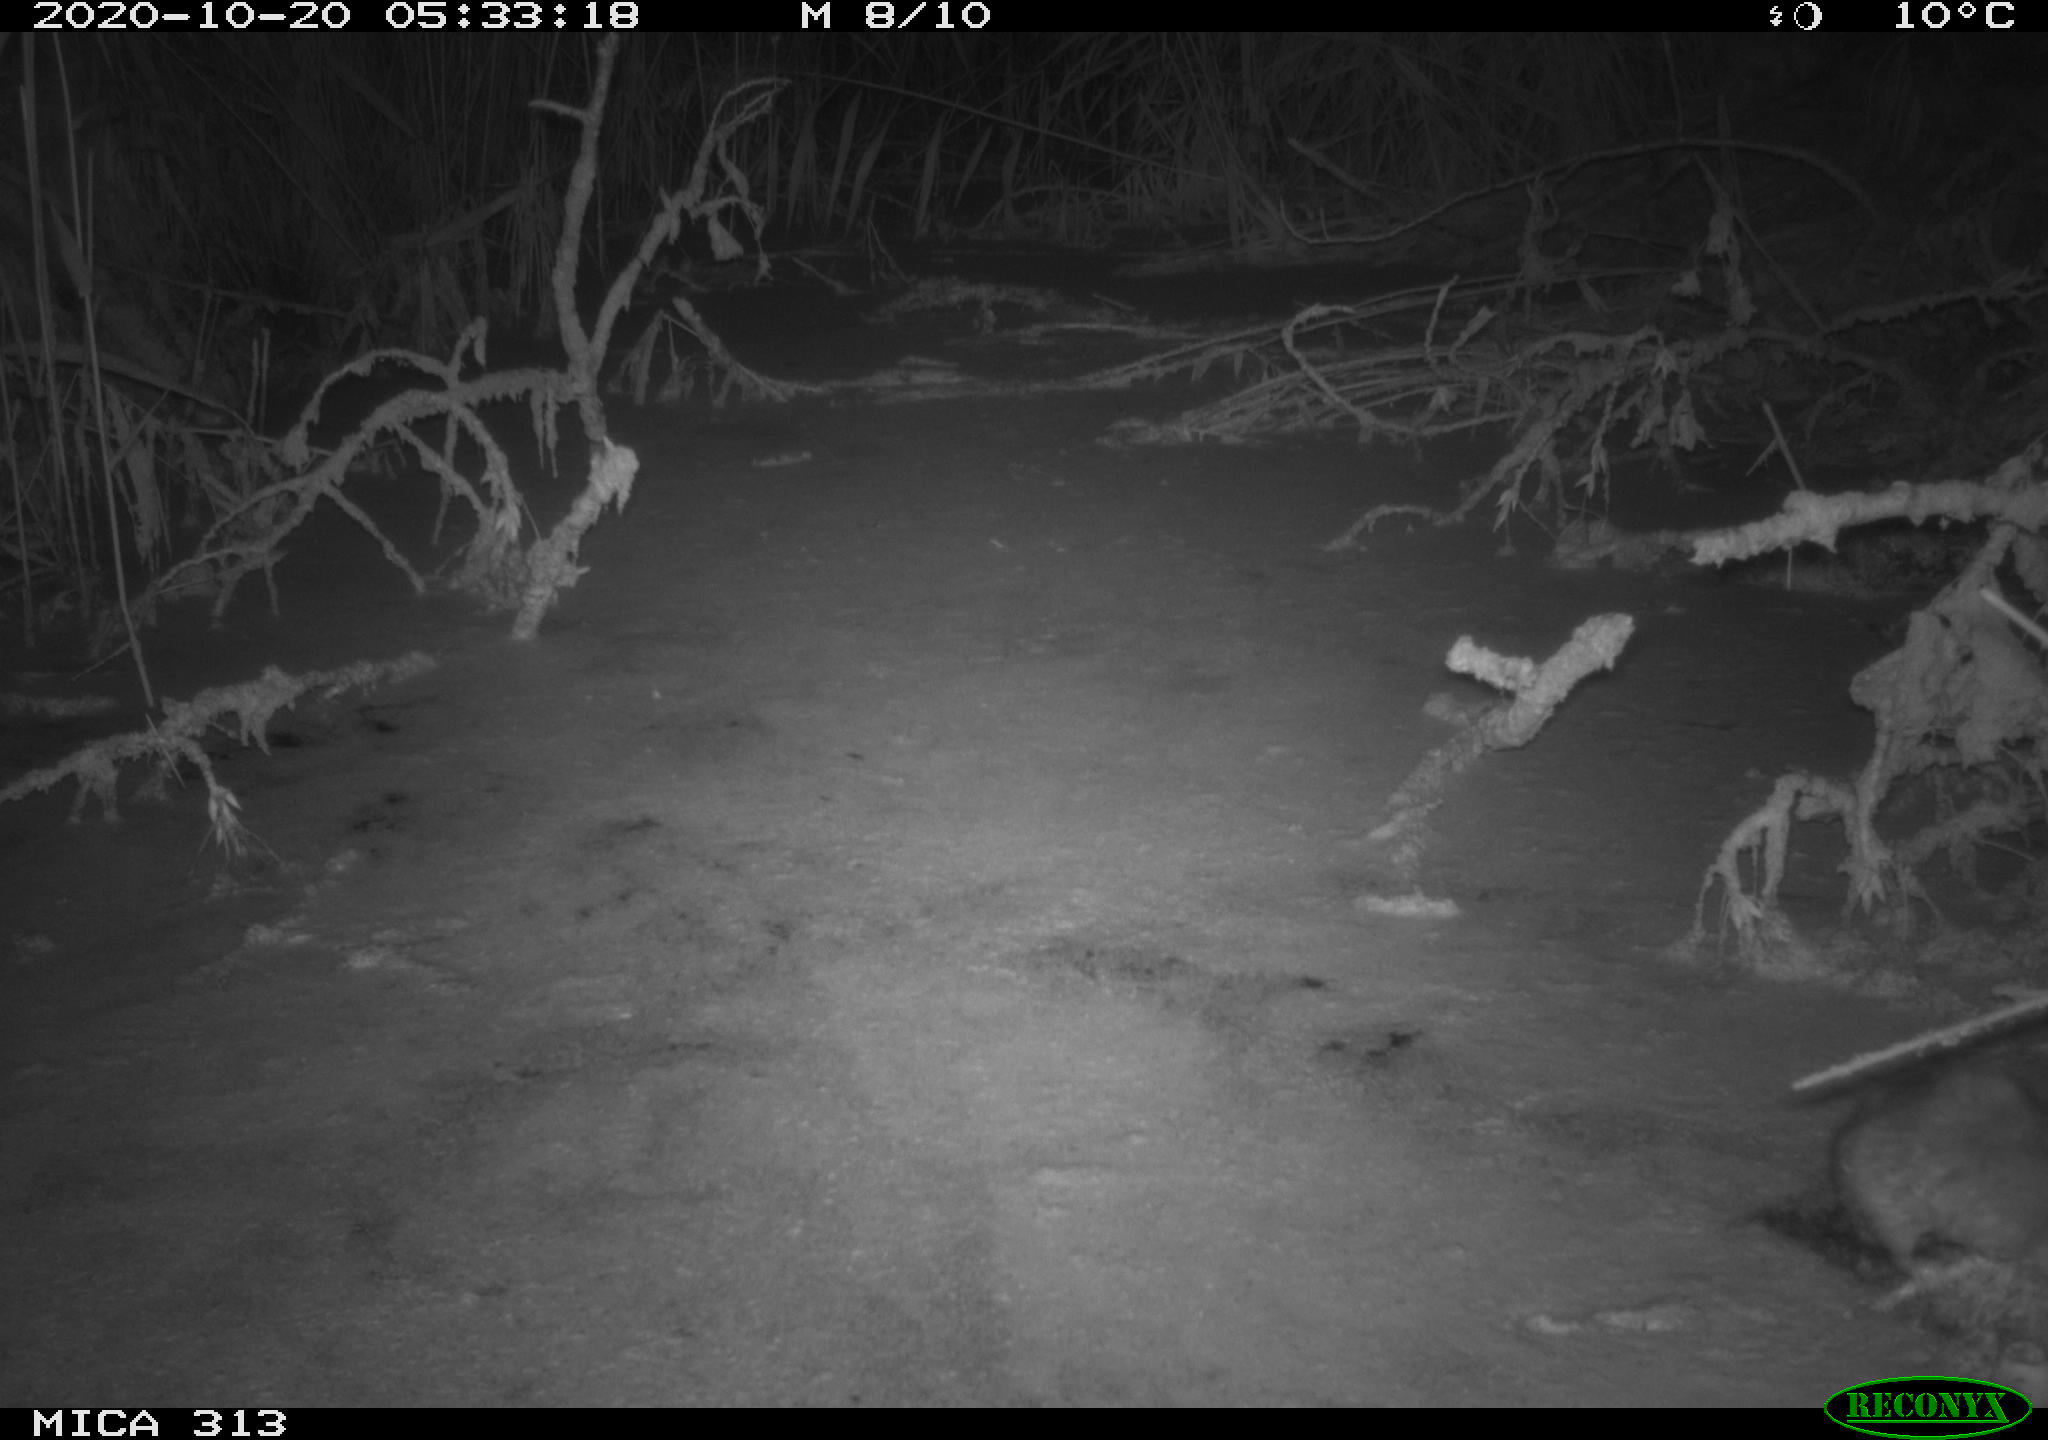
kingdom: Animalia
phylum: Chordata
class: Mammalia
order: Rodentia
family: Muridae
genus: Rattus
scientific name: Rattus norvegicus
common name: Brown rat
